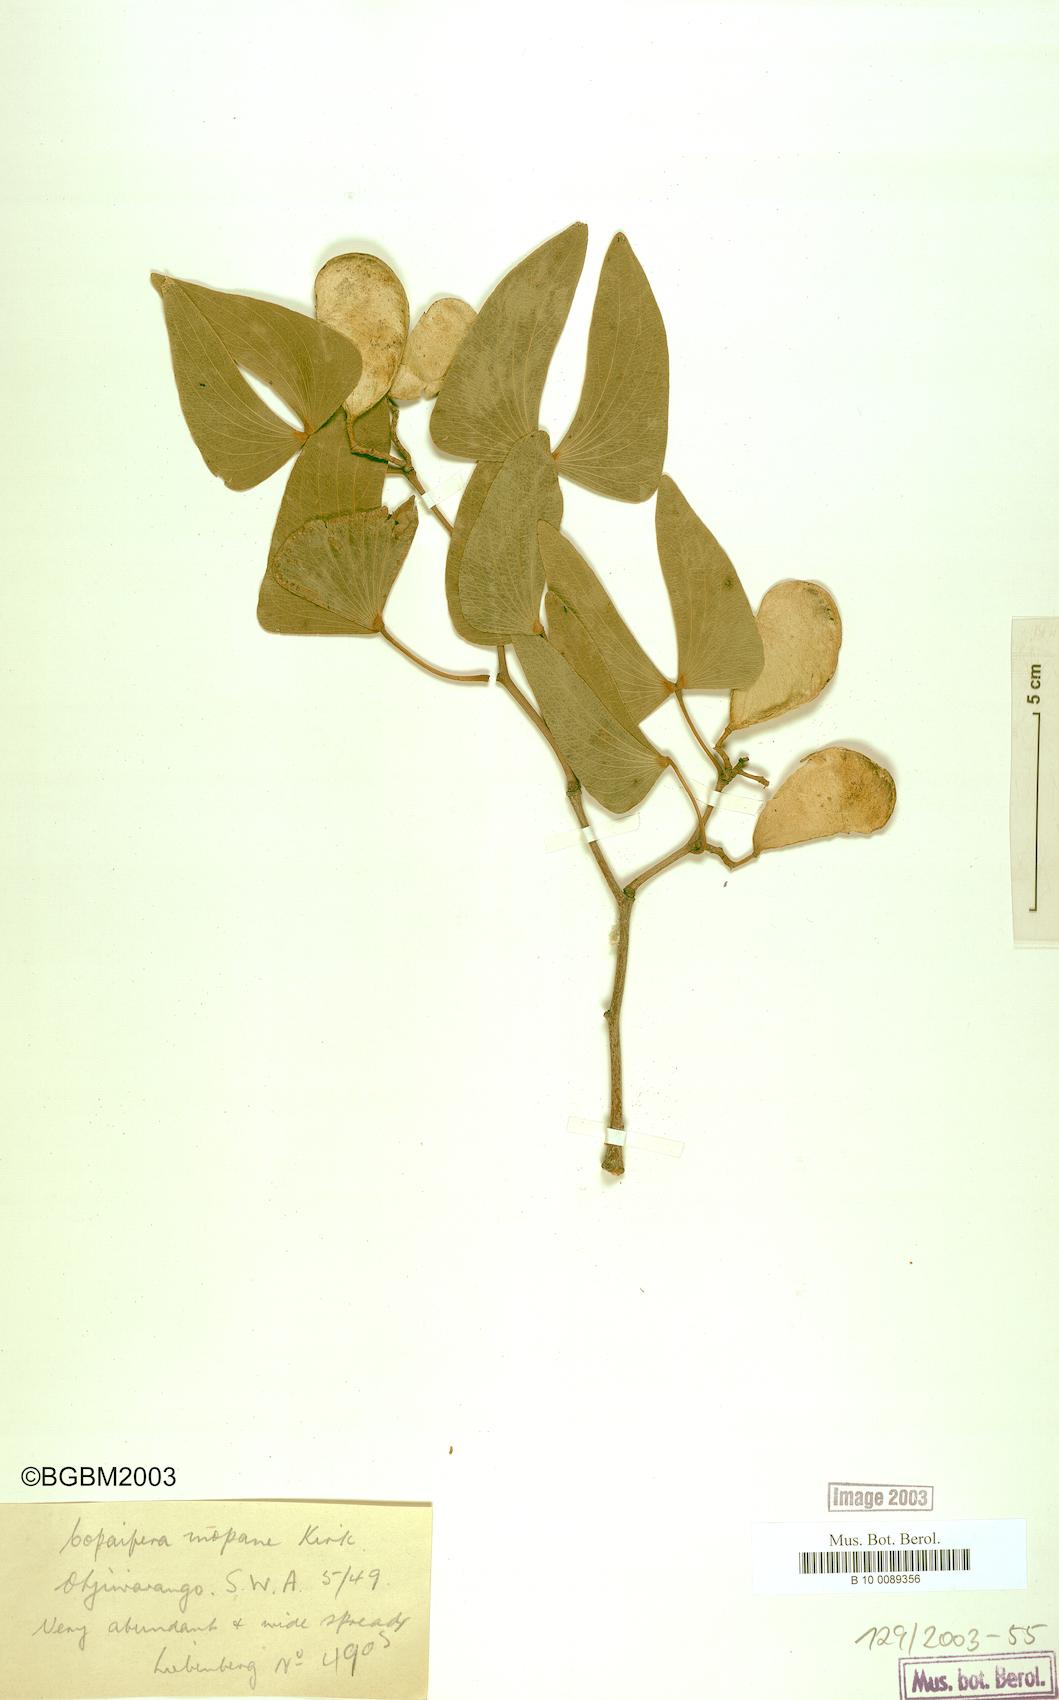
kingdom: Plantae
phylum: Tracheophyta
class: Magnoliopsida
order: Fabales
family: Fabaceae
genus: Colophospermum
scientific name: Colophospermum mopane
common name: Mopane
